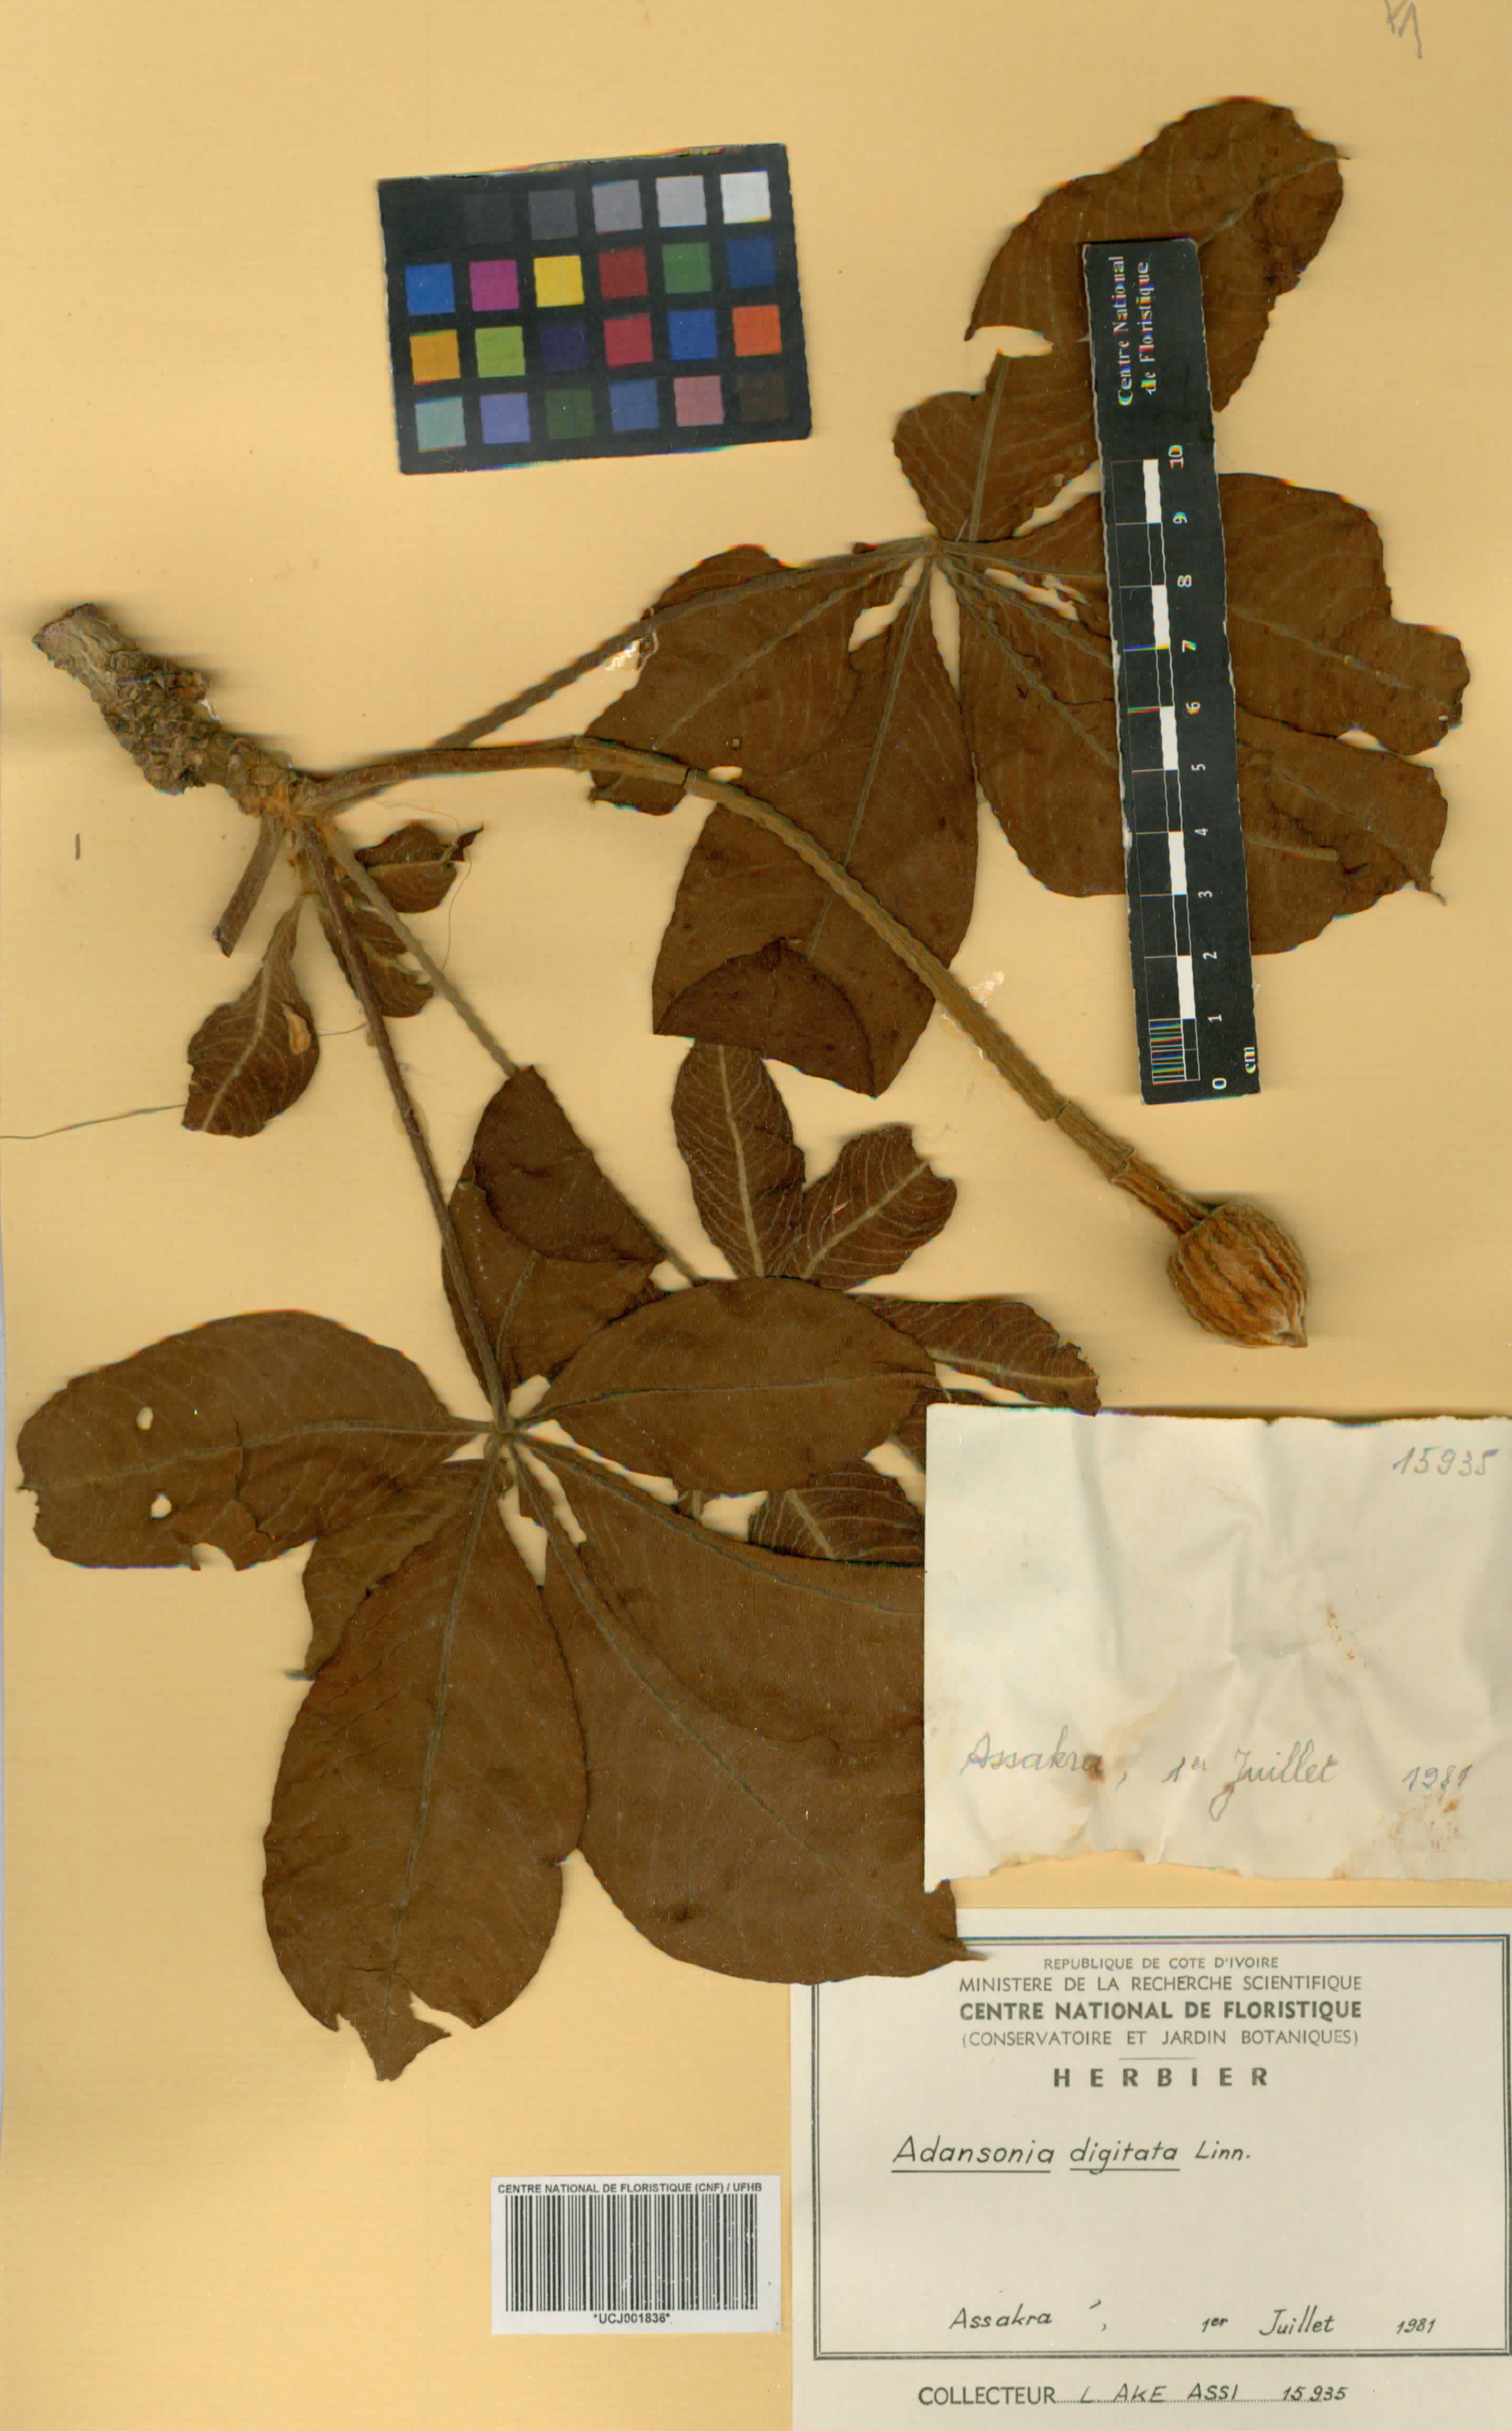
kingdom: Plantae
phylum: Tracheophyta
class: Magnoliopsida
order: Malvales
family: Malvaceae
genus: Adansonia
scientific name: Adansonia digitata
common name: Dead-rat-tree
